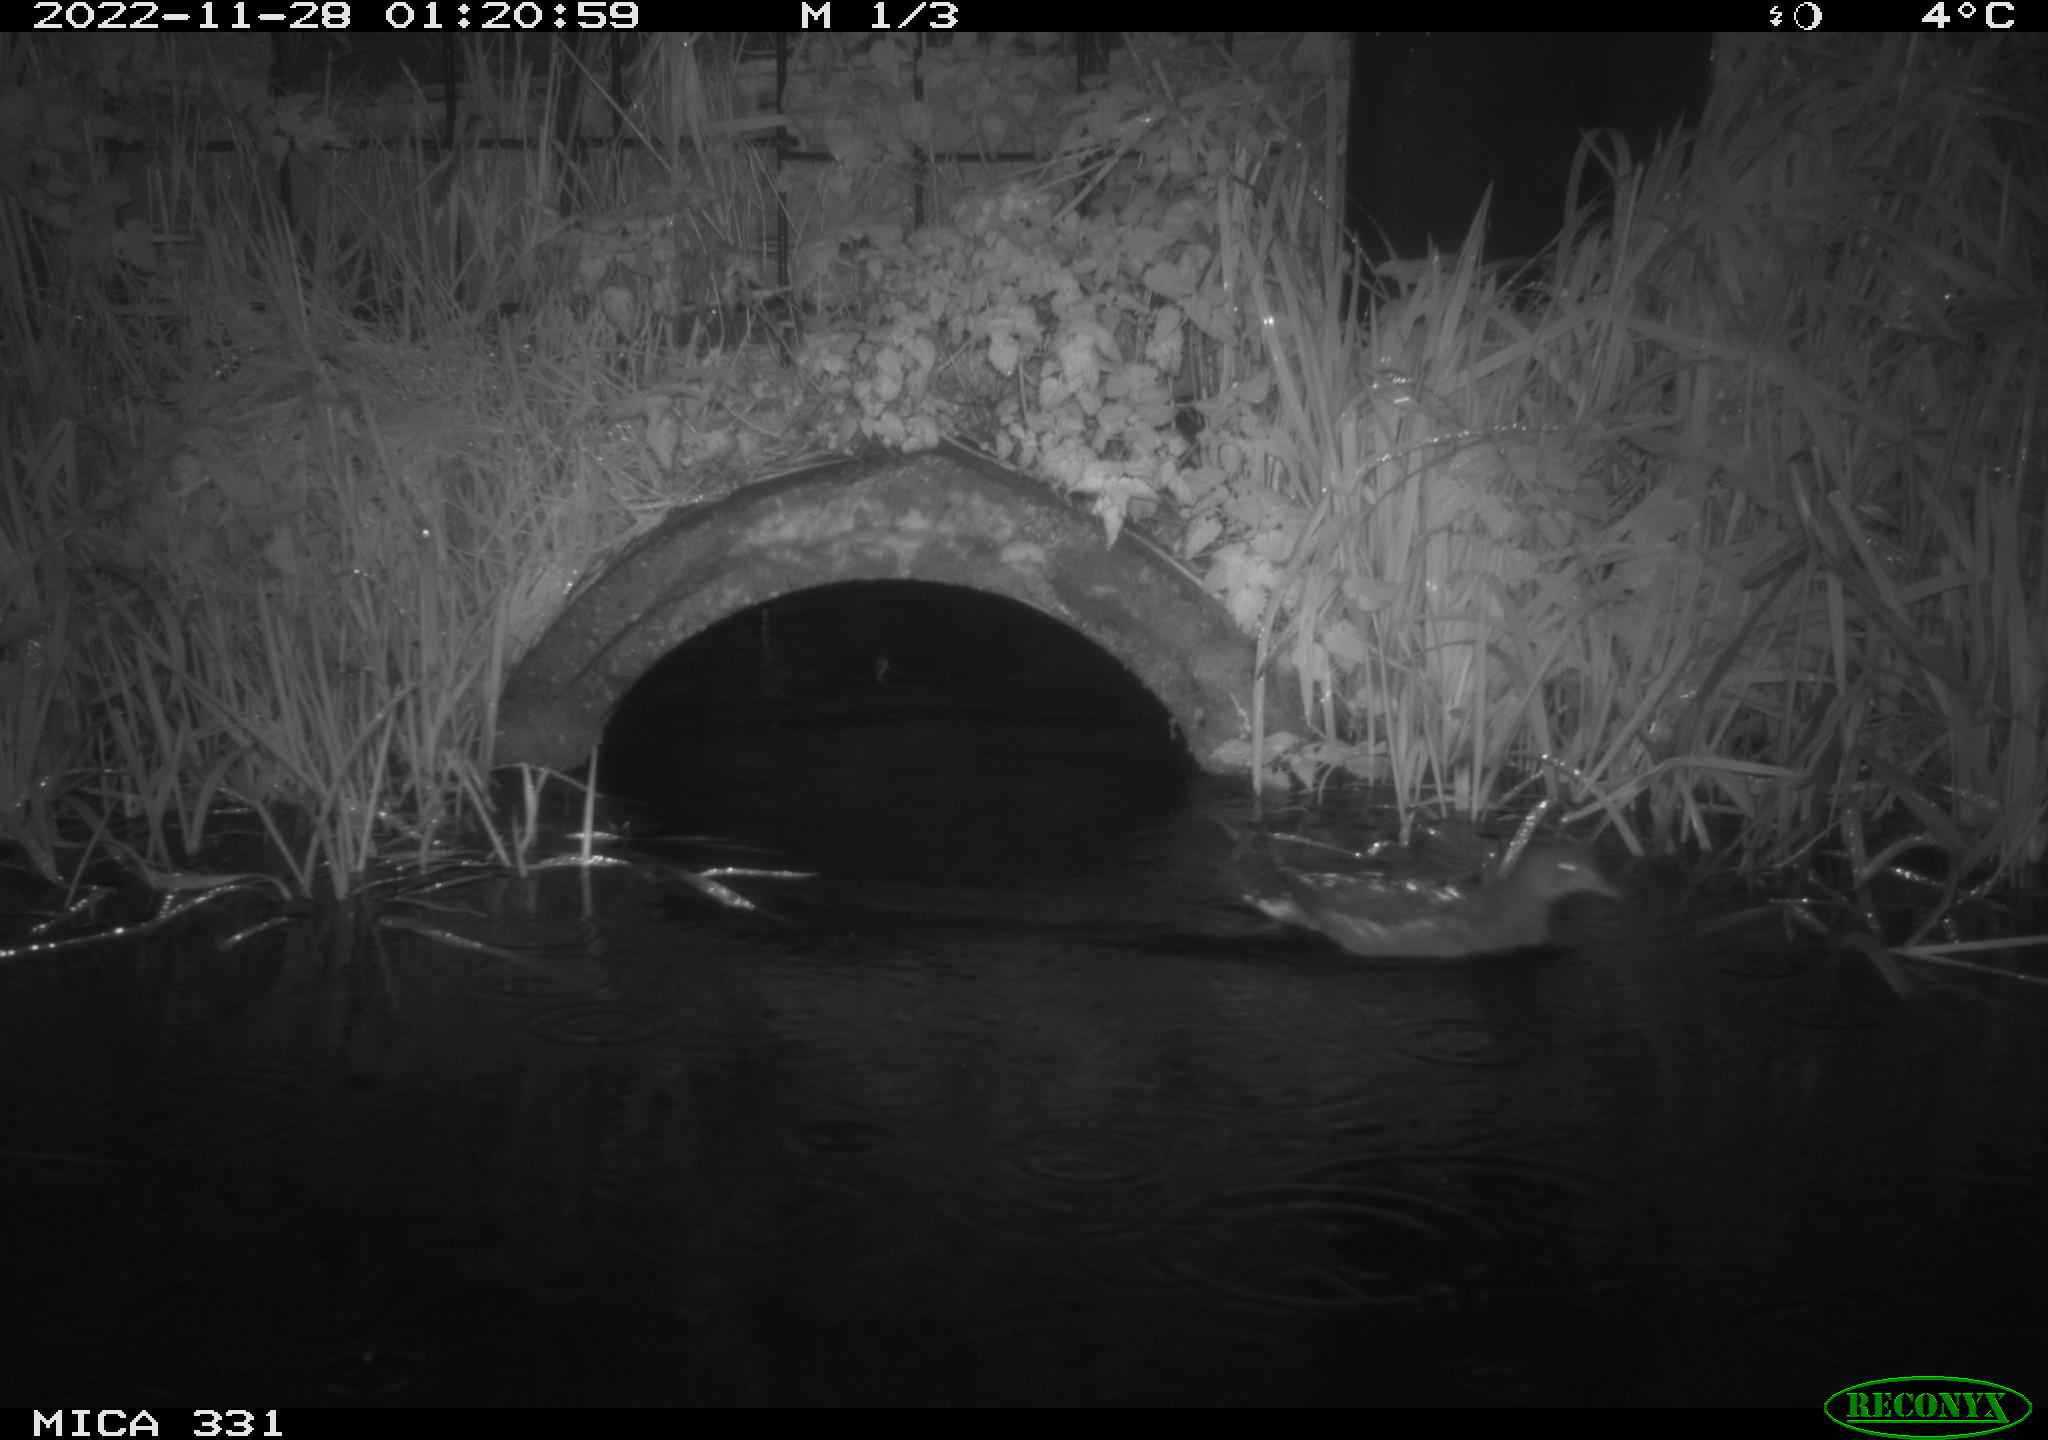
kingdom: Animalia
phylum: Chordata
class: Aves
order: Gruiformes
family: Rallidae
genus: Gallinula
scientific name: Gallinula chloropus
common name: Common moorhen
